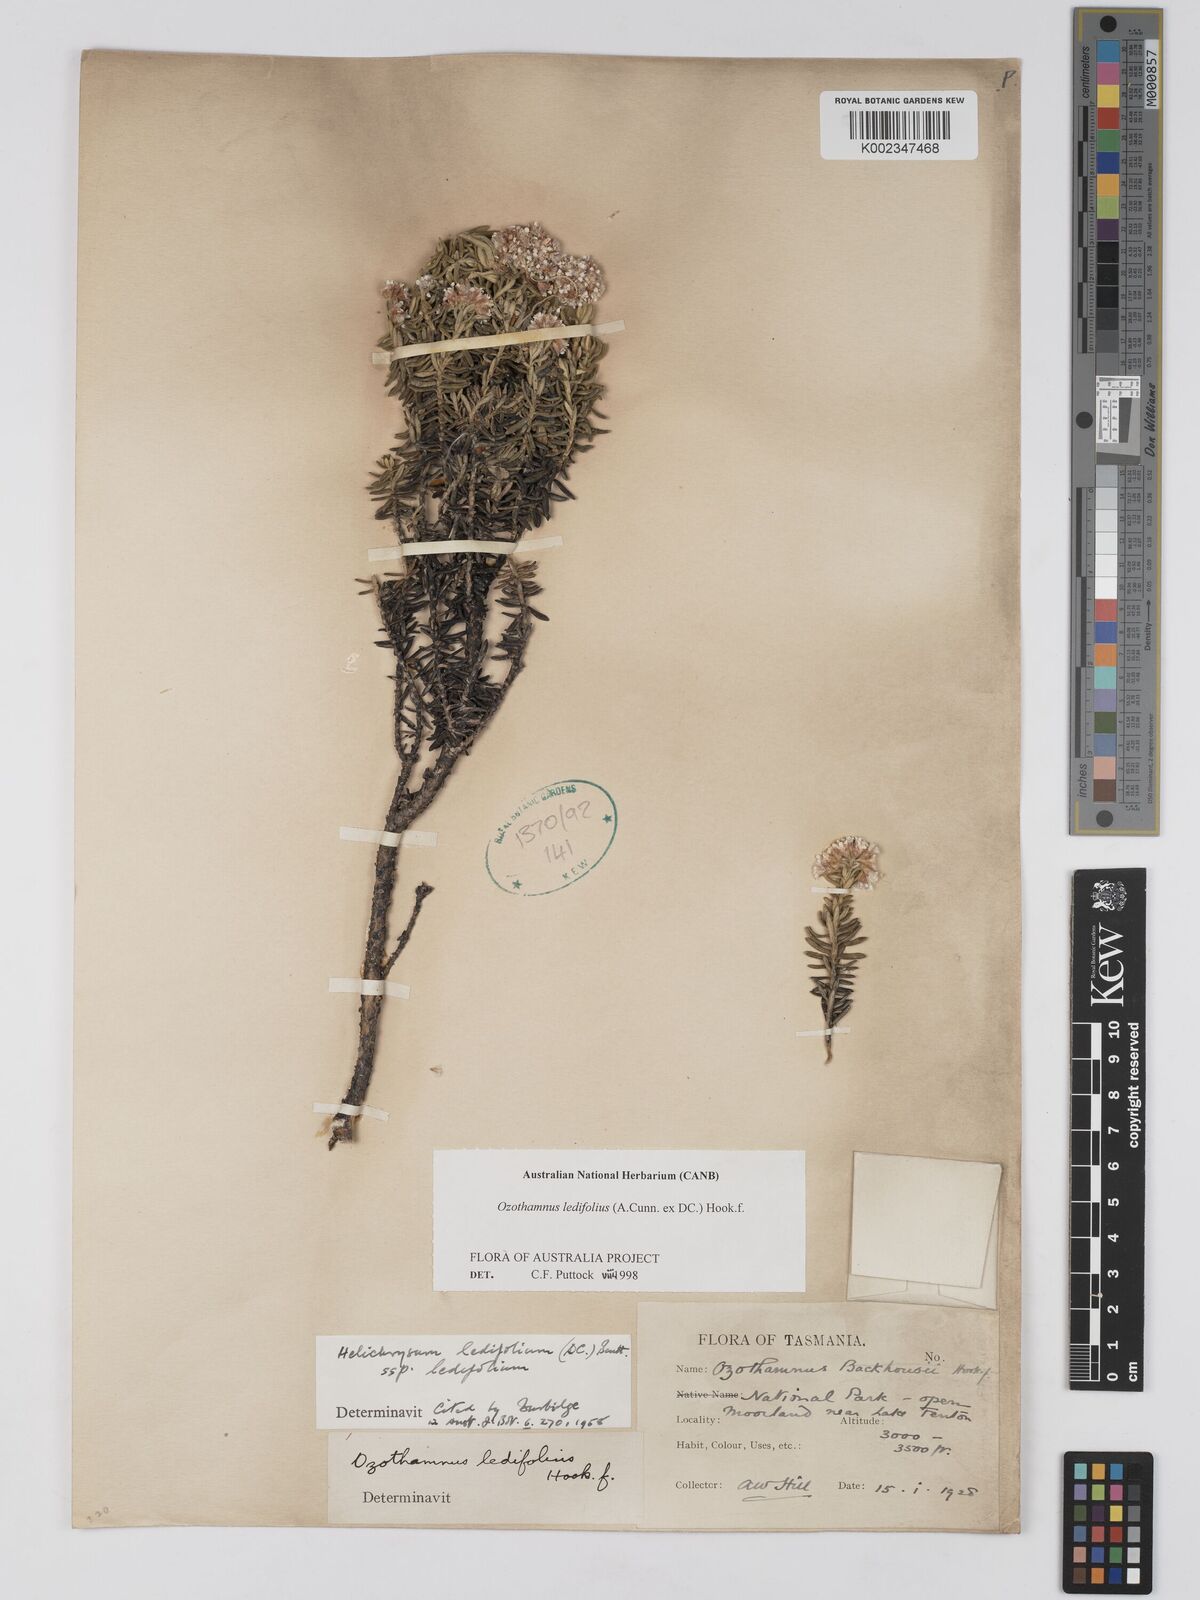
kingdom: Plantae
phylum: Tracheophyta
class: Magnoliopsida
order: Asterales
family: Asteraceae
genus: Ozothamnus
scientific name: Ozothamnus ledifolius
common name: Kerosene-weed
